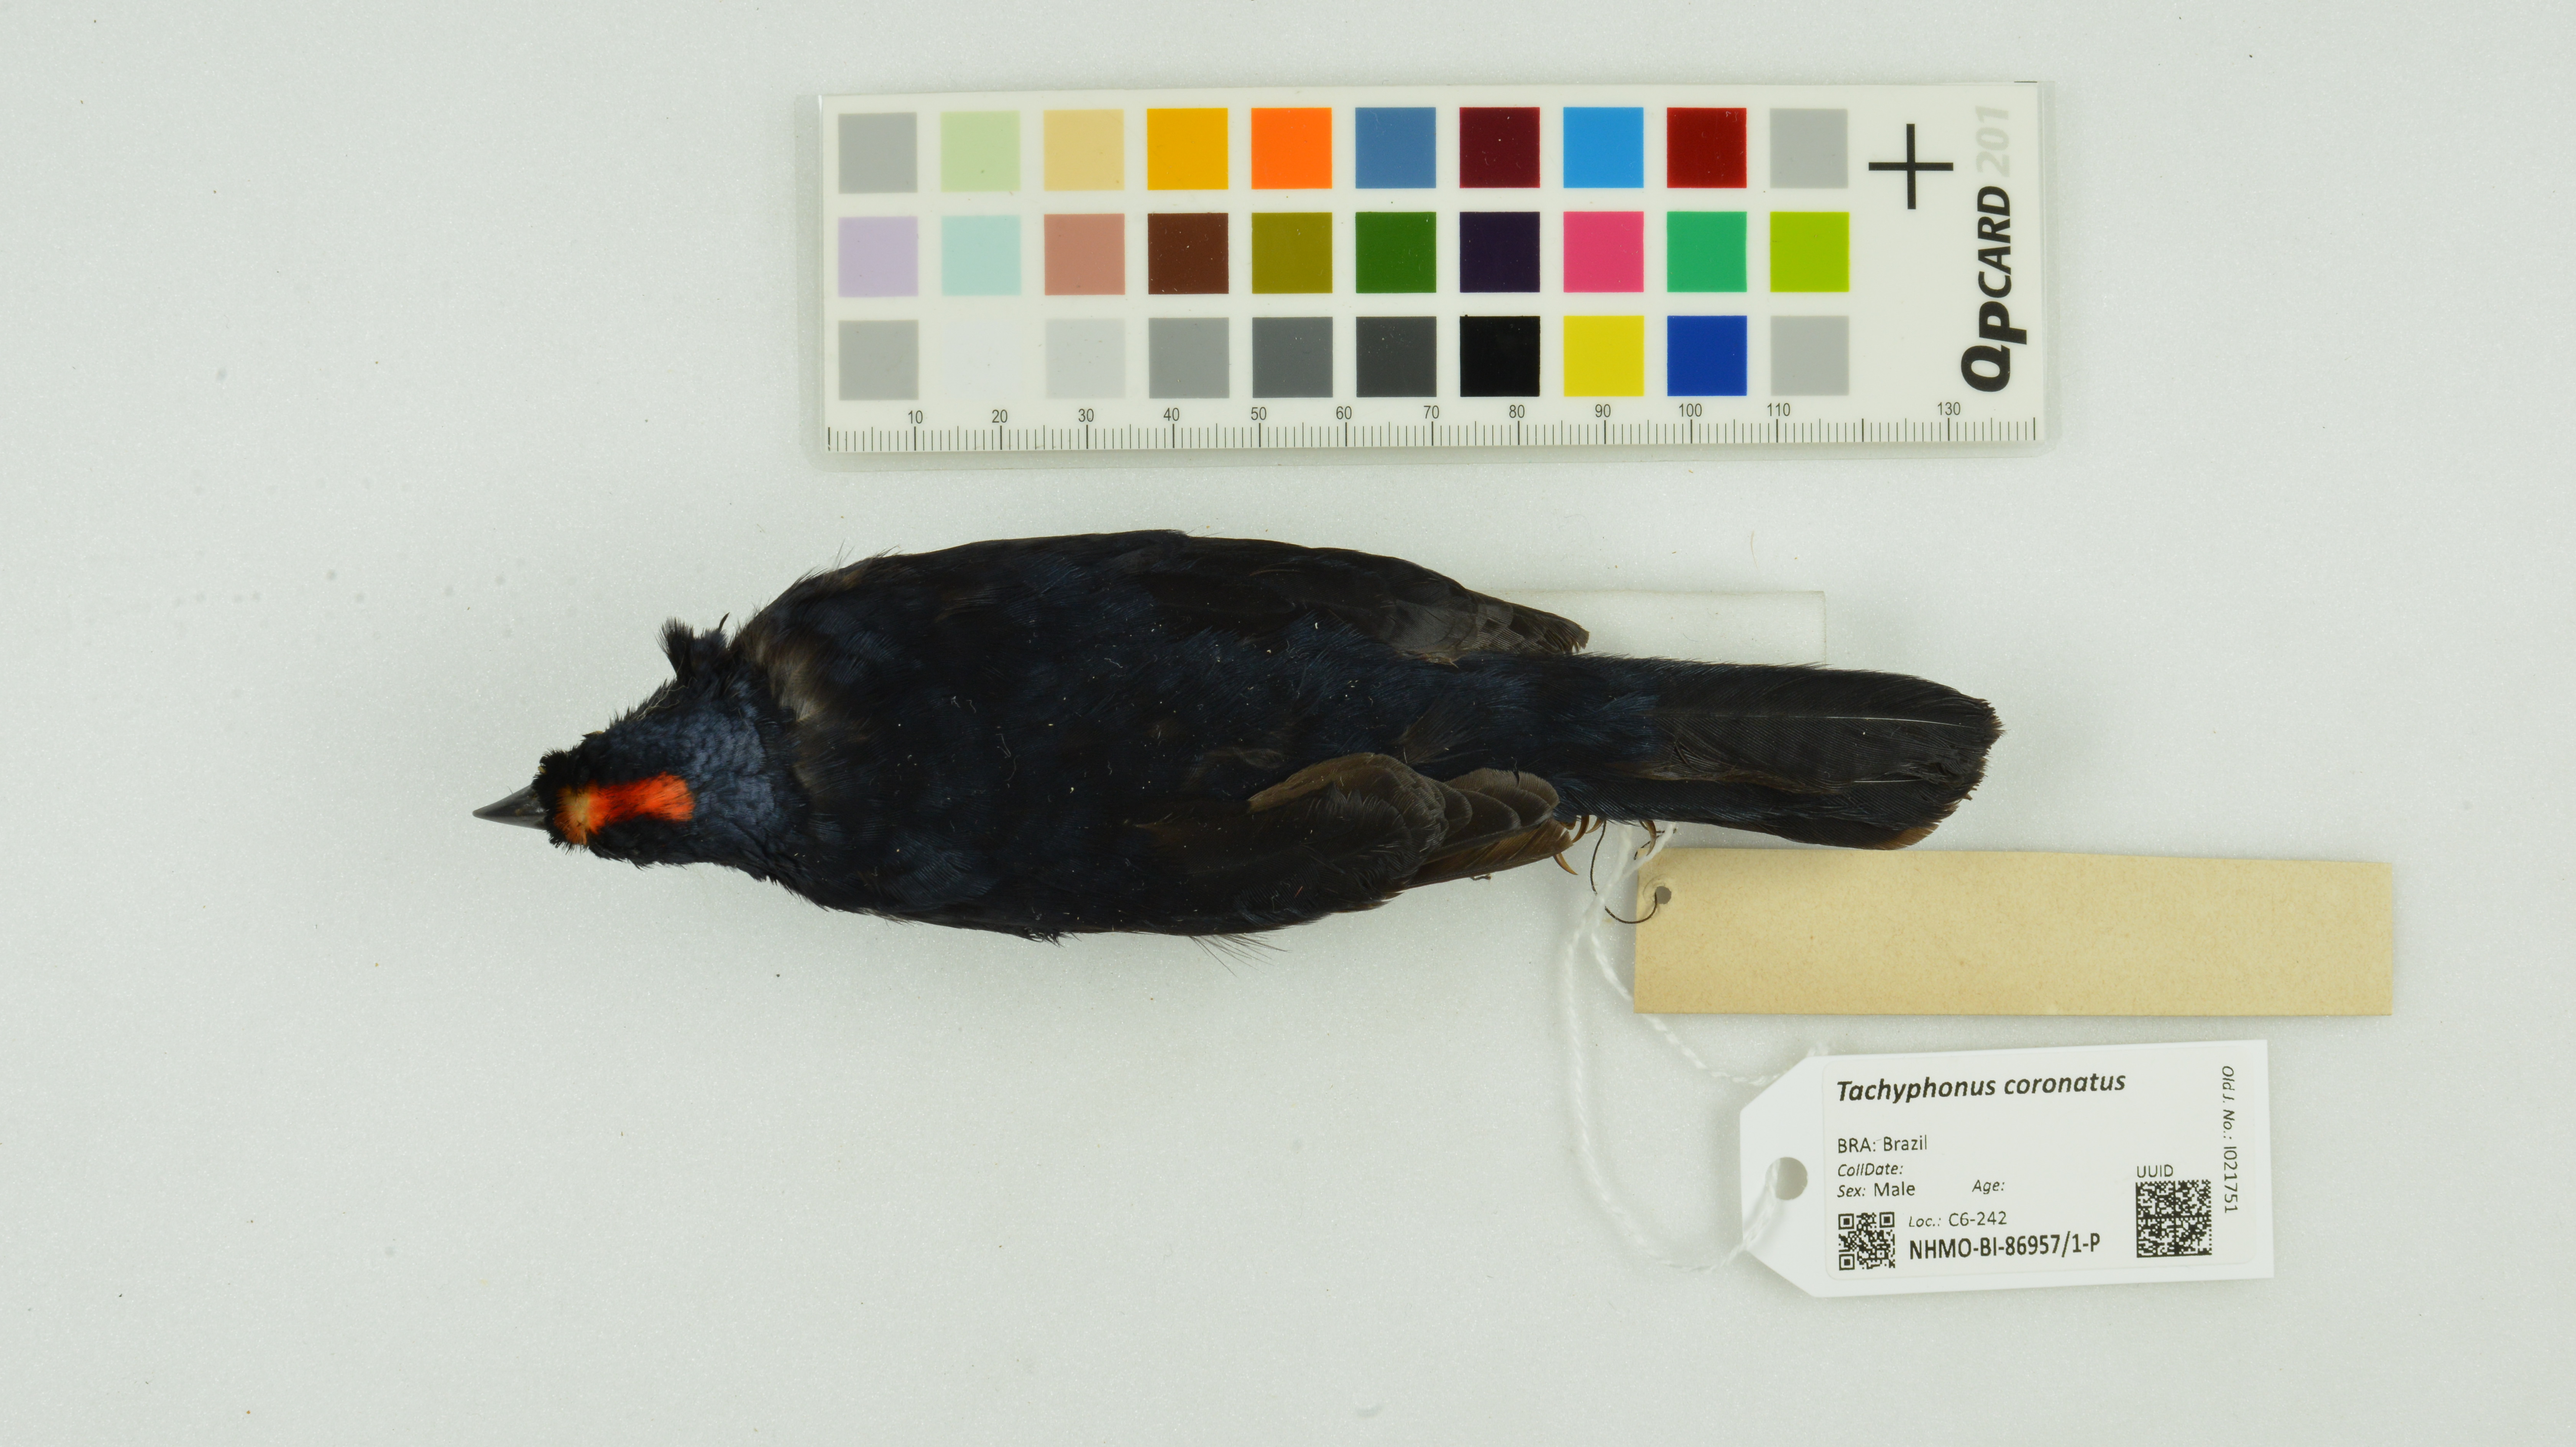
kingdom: Animalia
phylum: Chordata
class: Aves
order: Passeriformes
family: Thraupidae
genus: Tachyphonus
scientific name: Tachyphonus coronatus
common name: Ruby-crowned tanager
